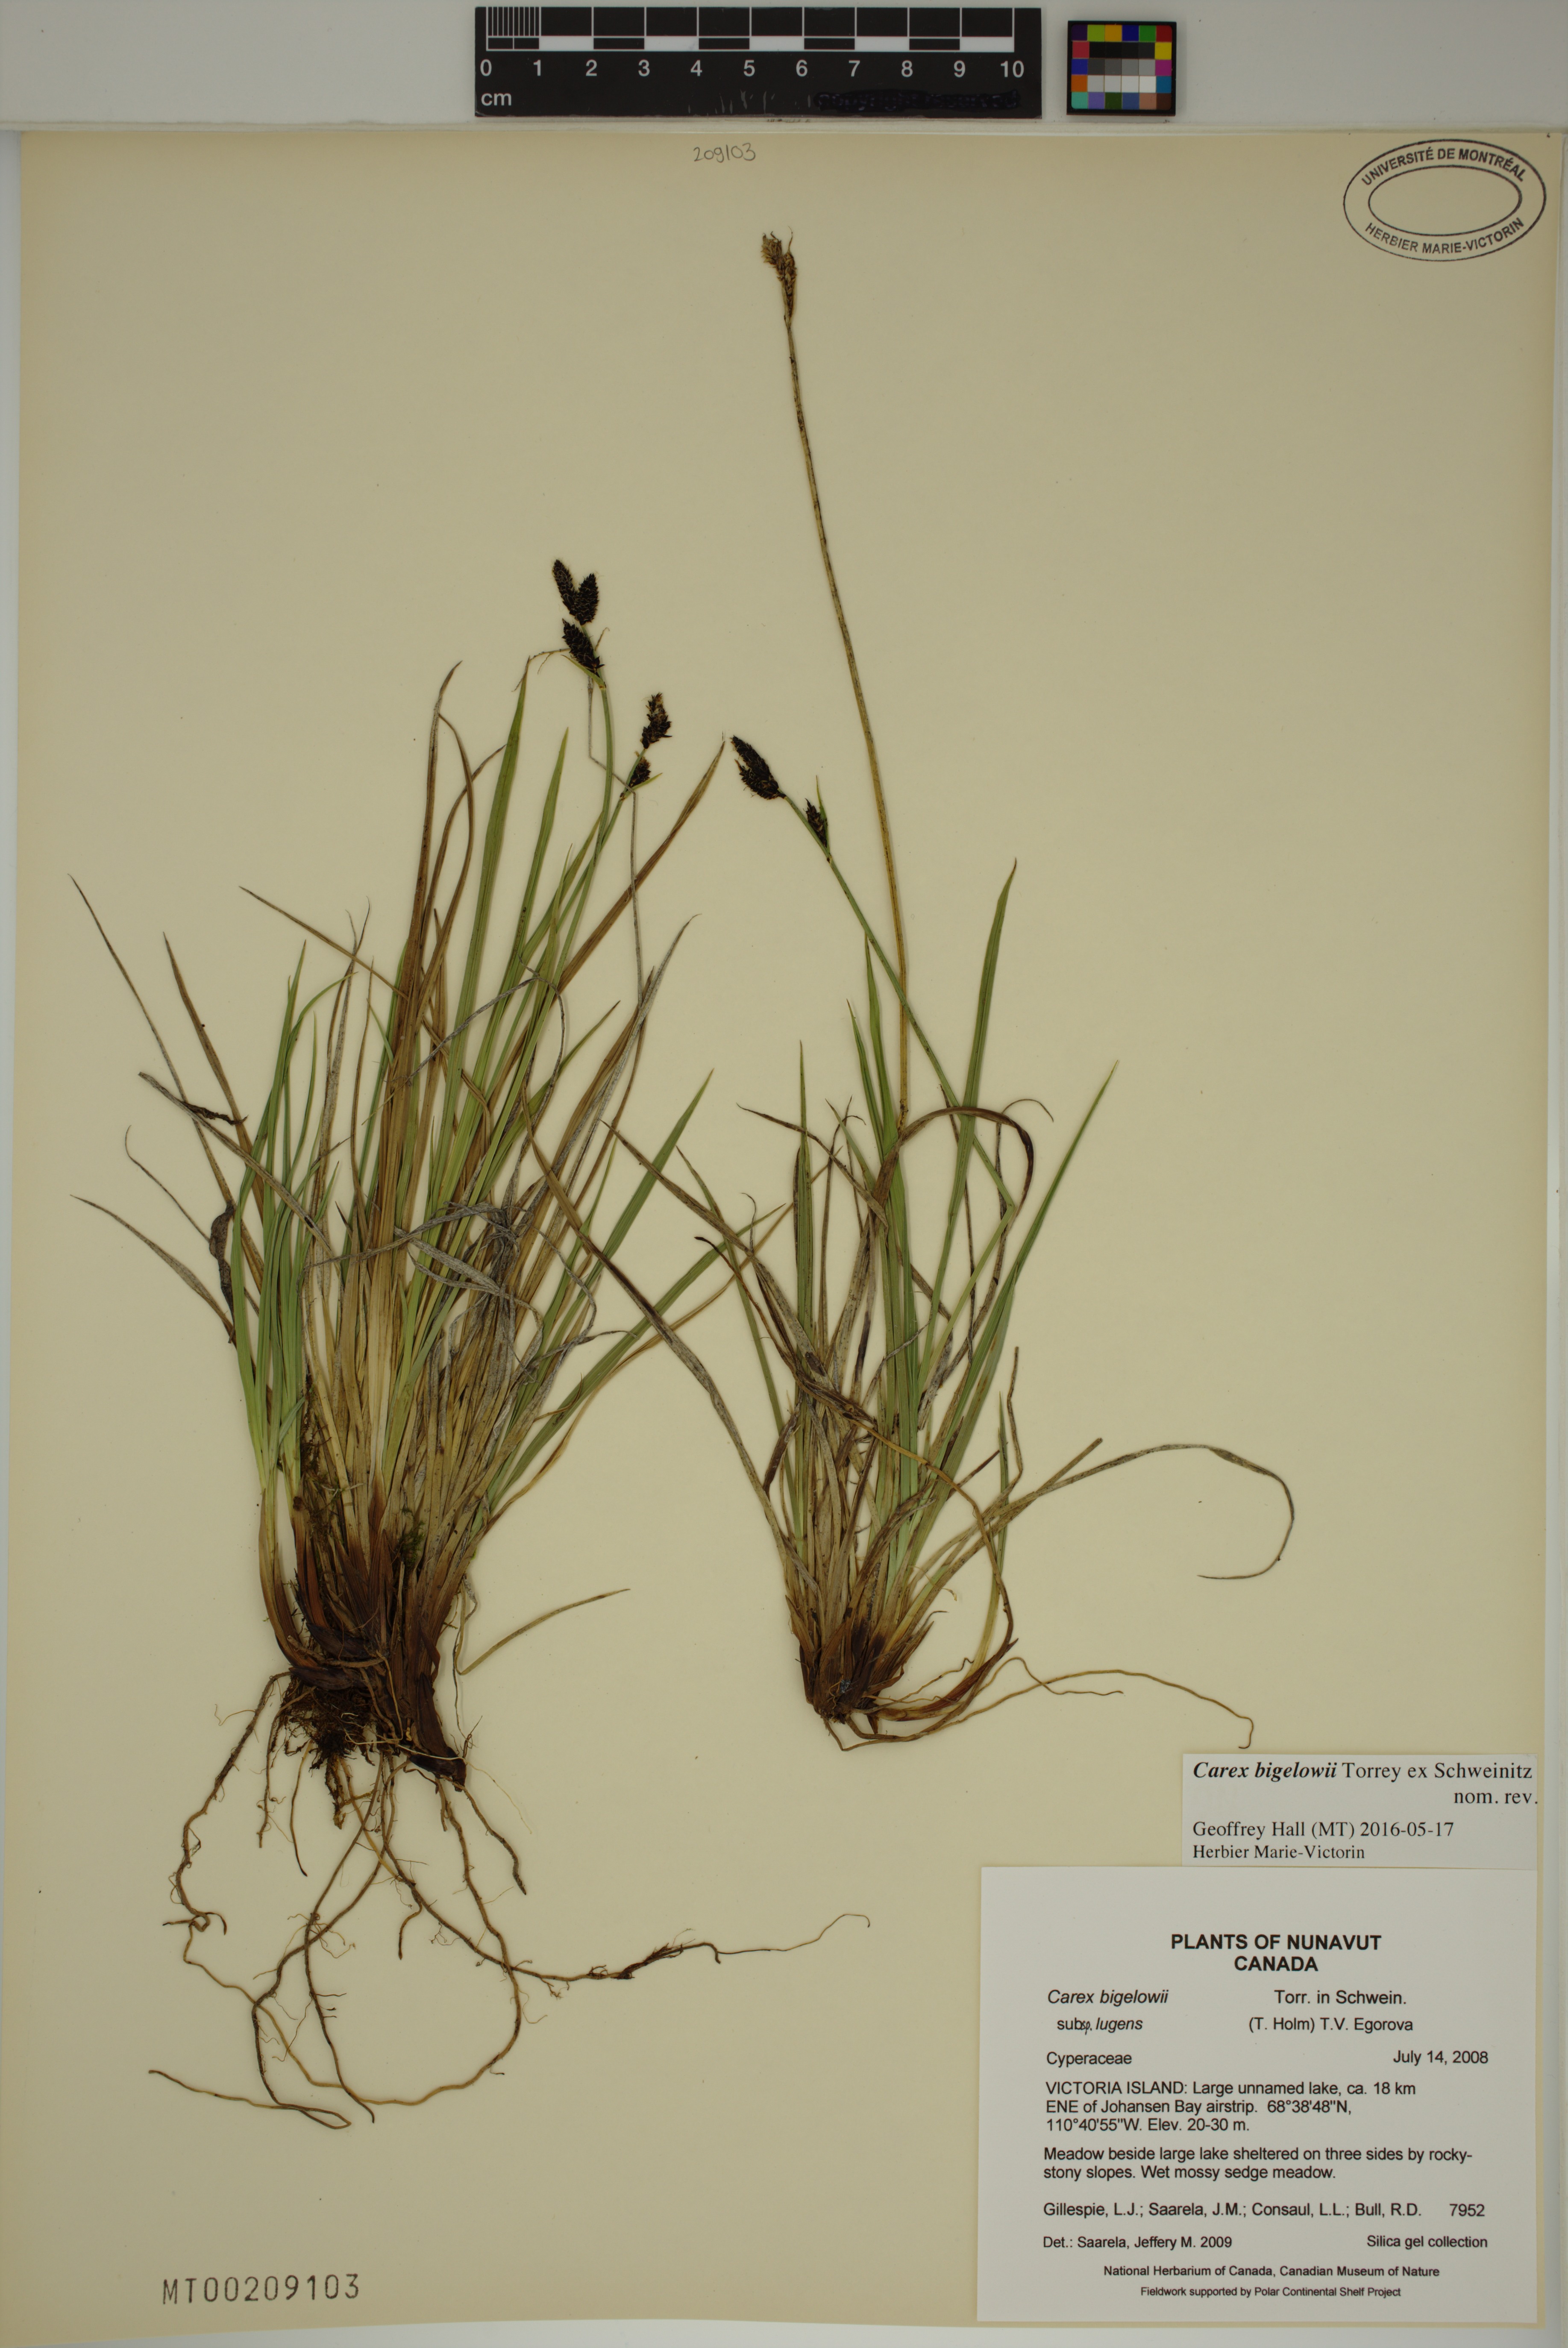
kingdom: Plantae
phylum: Tracheophyta
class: Liliopsida
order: Poales
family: Cyperaceae
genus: Carex
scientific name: Carex bigelowii
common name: Stiff sedge
